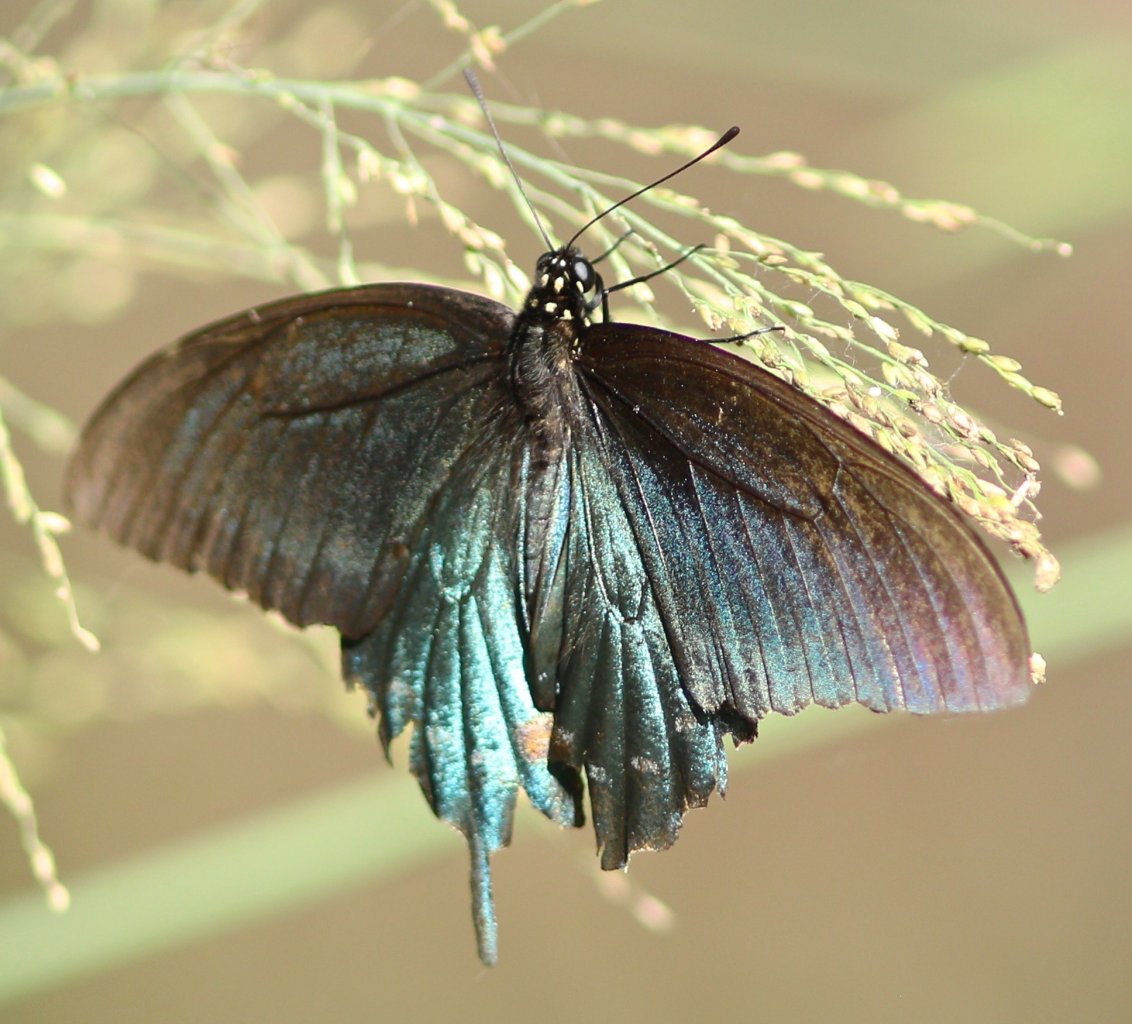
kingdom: Animalia
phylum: Arthropoda
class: Insecta
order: Lepidoptera
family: Papilionidae
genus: Battus
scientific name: Battus philenor
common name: Pipevine Swallowtail
